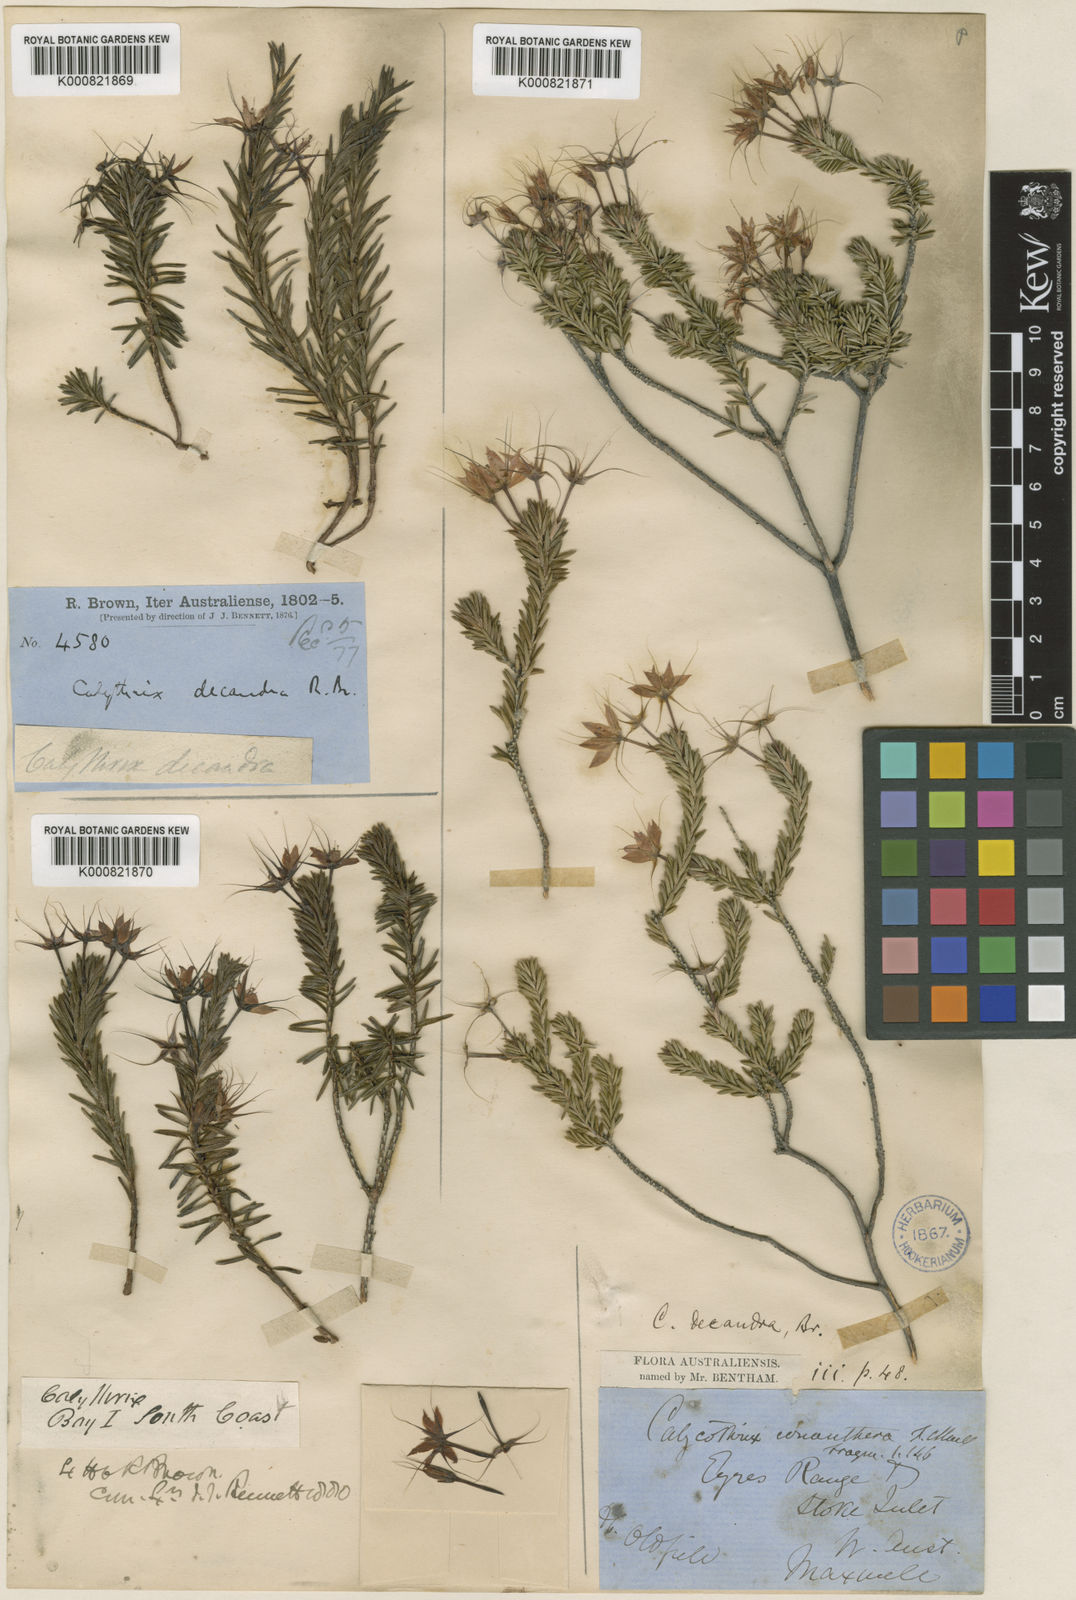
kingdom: Plantae
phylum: Tracheophyta
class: Magnoliopsida
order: Myrtales
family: Myrtaceae
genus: Calytrix
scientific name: Calytrix decandra
